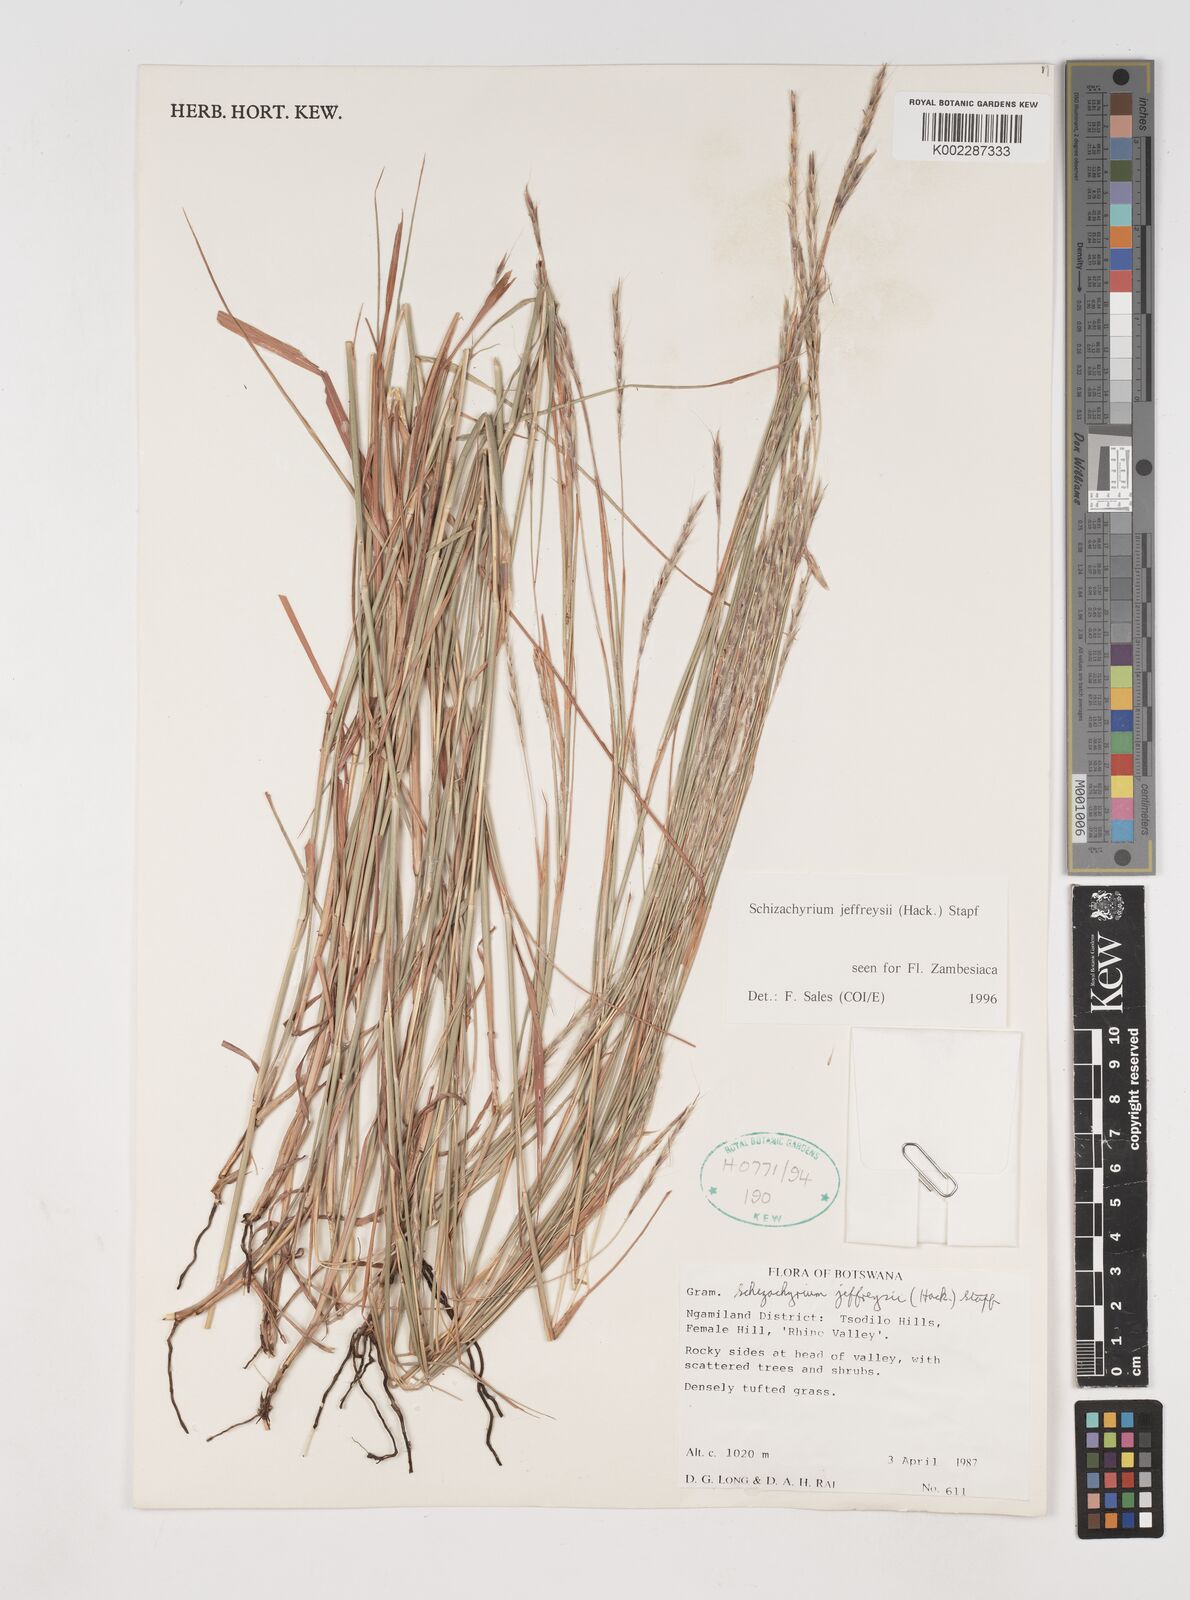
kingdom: Plantae
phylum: Tracheophyta
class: Liliopsida
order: Poales
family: Poaceae
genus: Schizachyrium
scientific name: Schizachyrium jeffreysii
